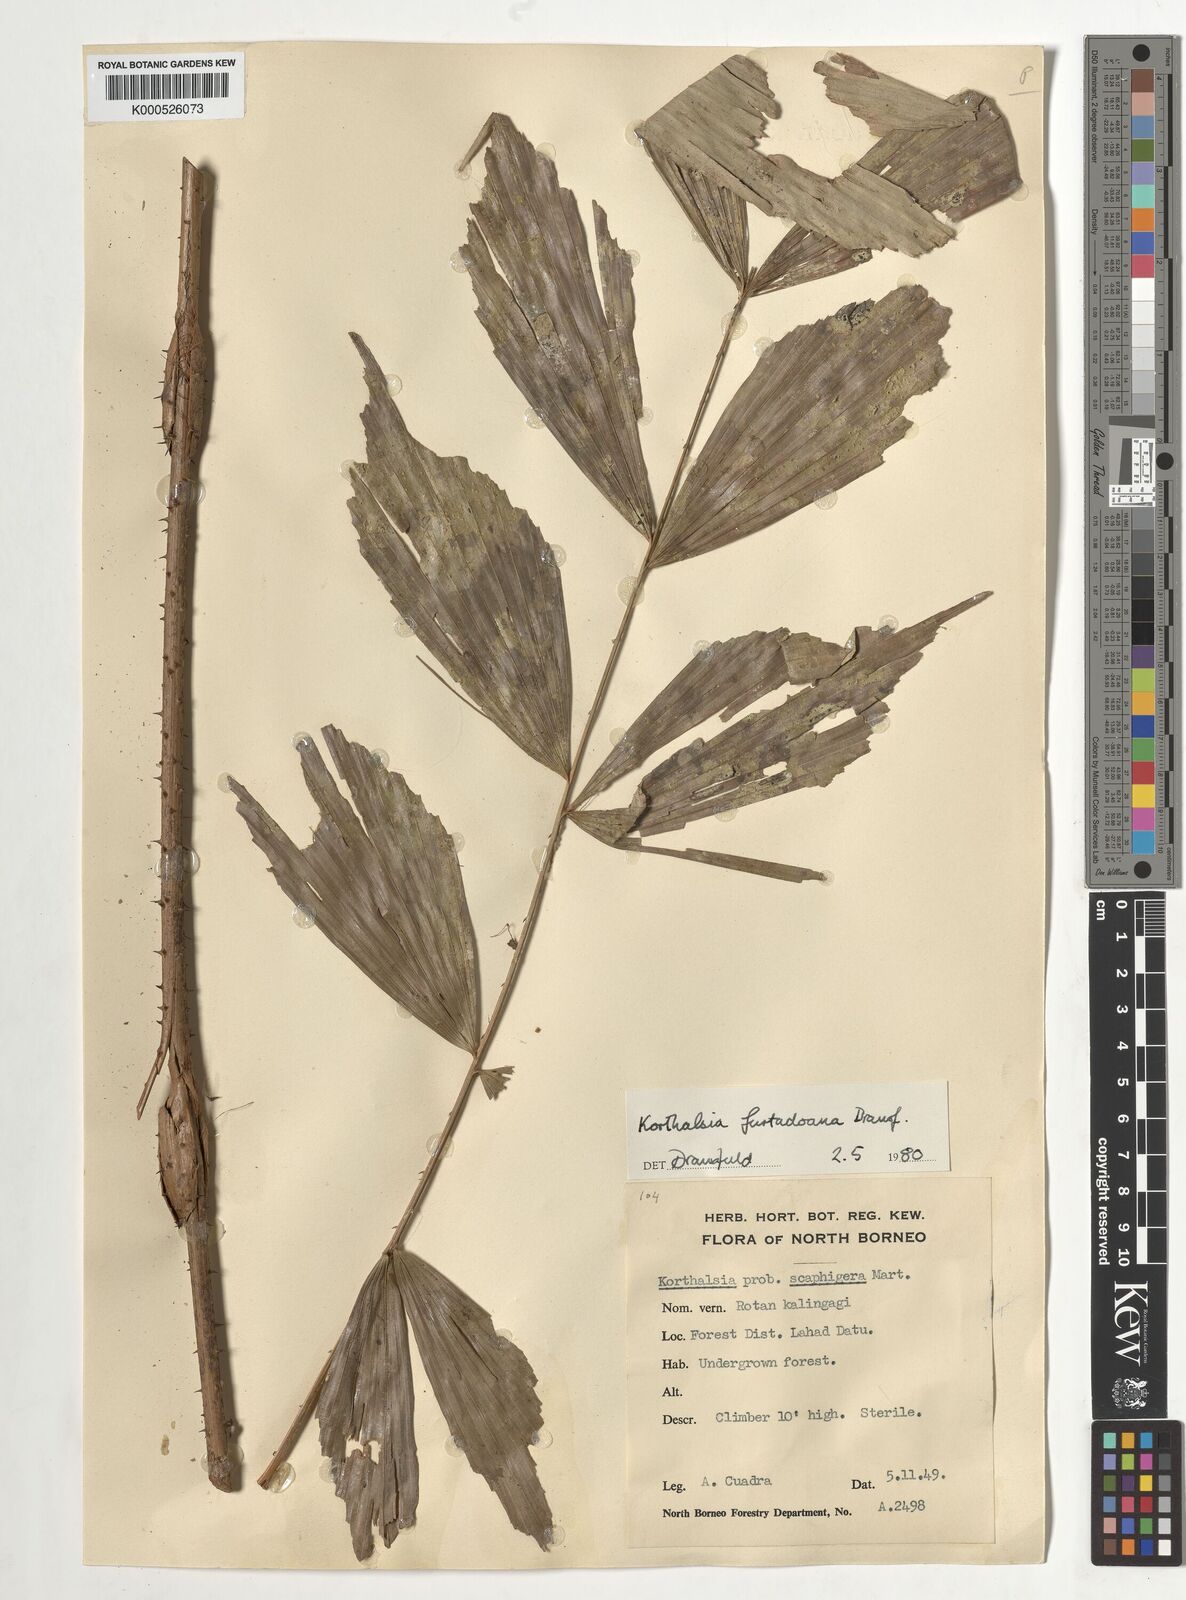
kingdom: Plantae
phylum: Tracheophyta
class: Liliopsida
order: Arecales
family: Arecaceae
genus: Korthalsia
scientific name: Korthalsia furtadoana
